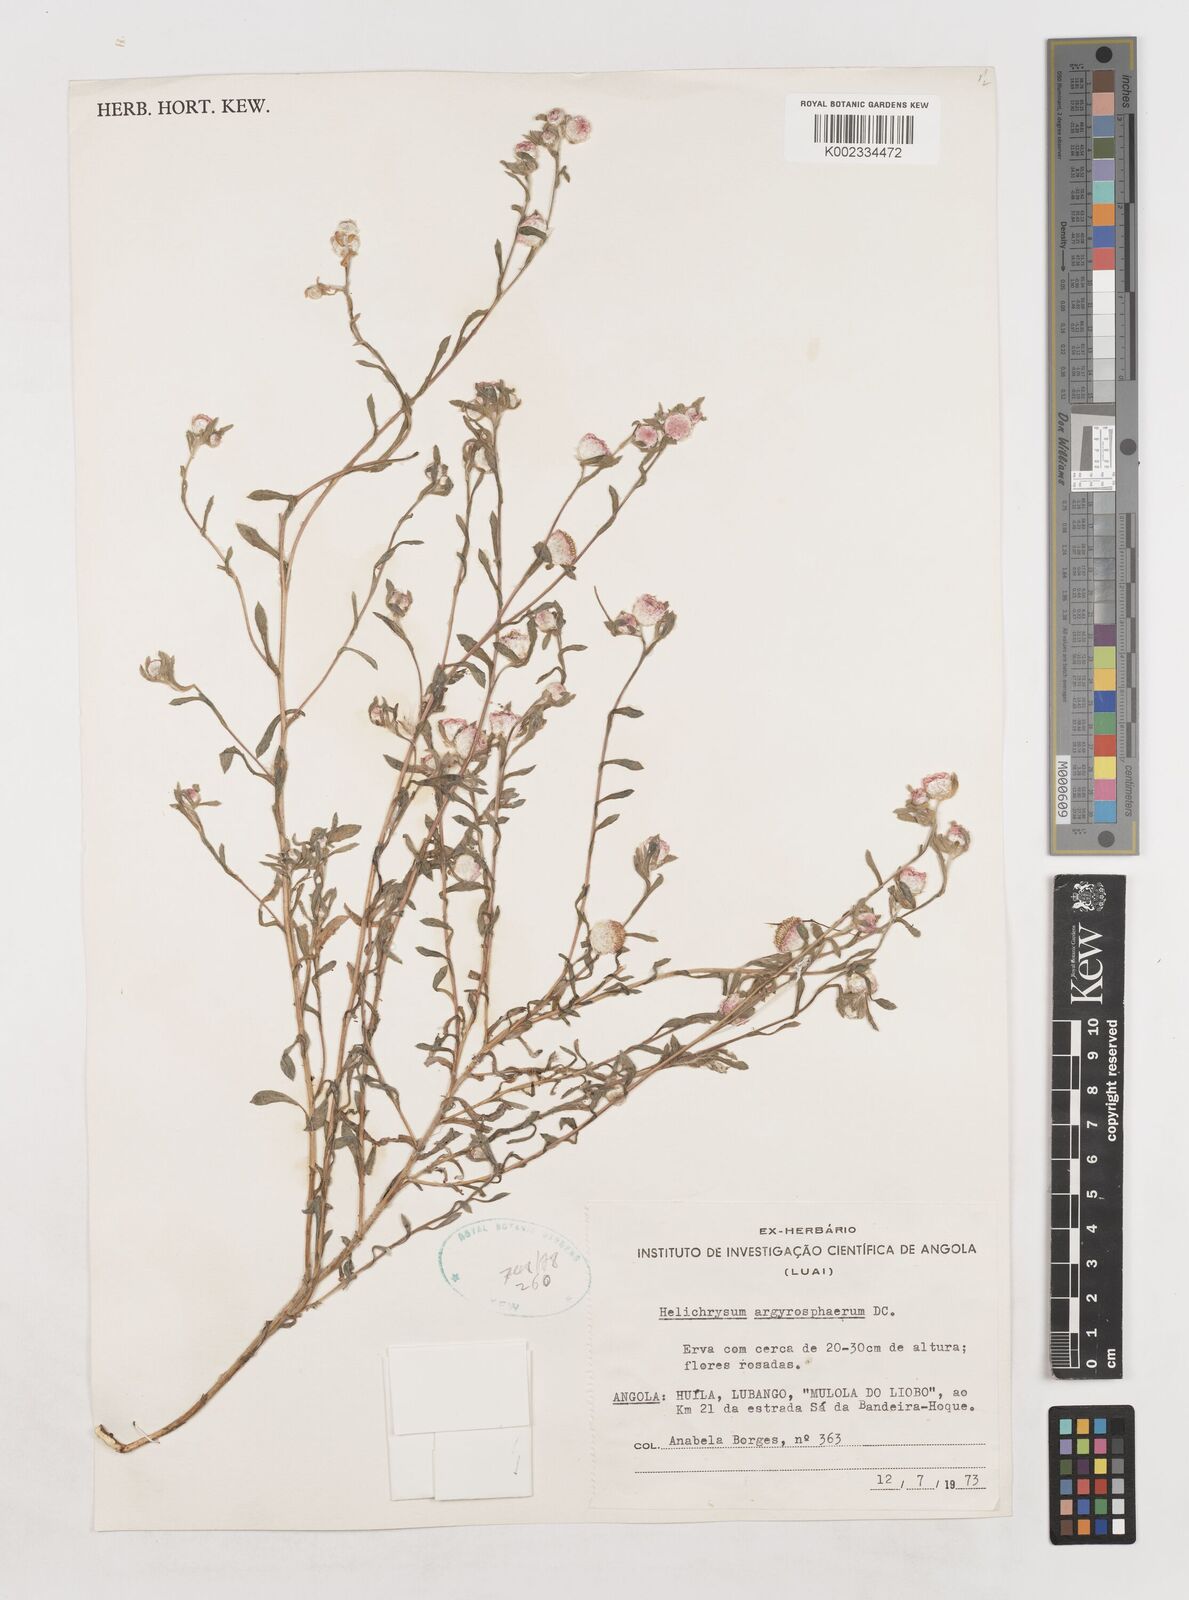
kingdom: Plantae
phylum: Tracheophyta
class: Magnoliopsida
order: Asterales
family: Asteraceae
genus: Helichrysum
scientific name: Helichrysum argyrosphaerum
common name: Wild everlasting
